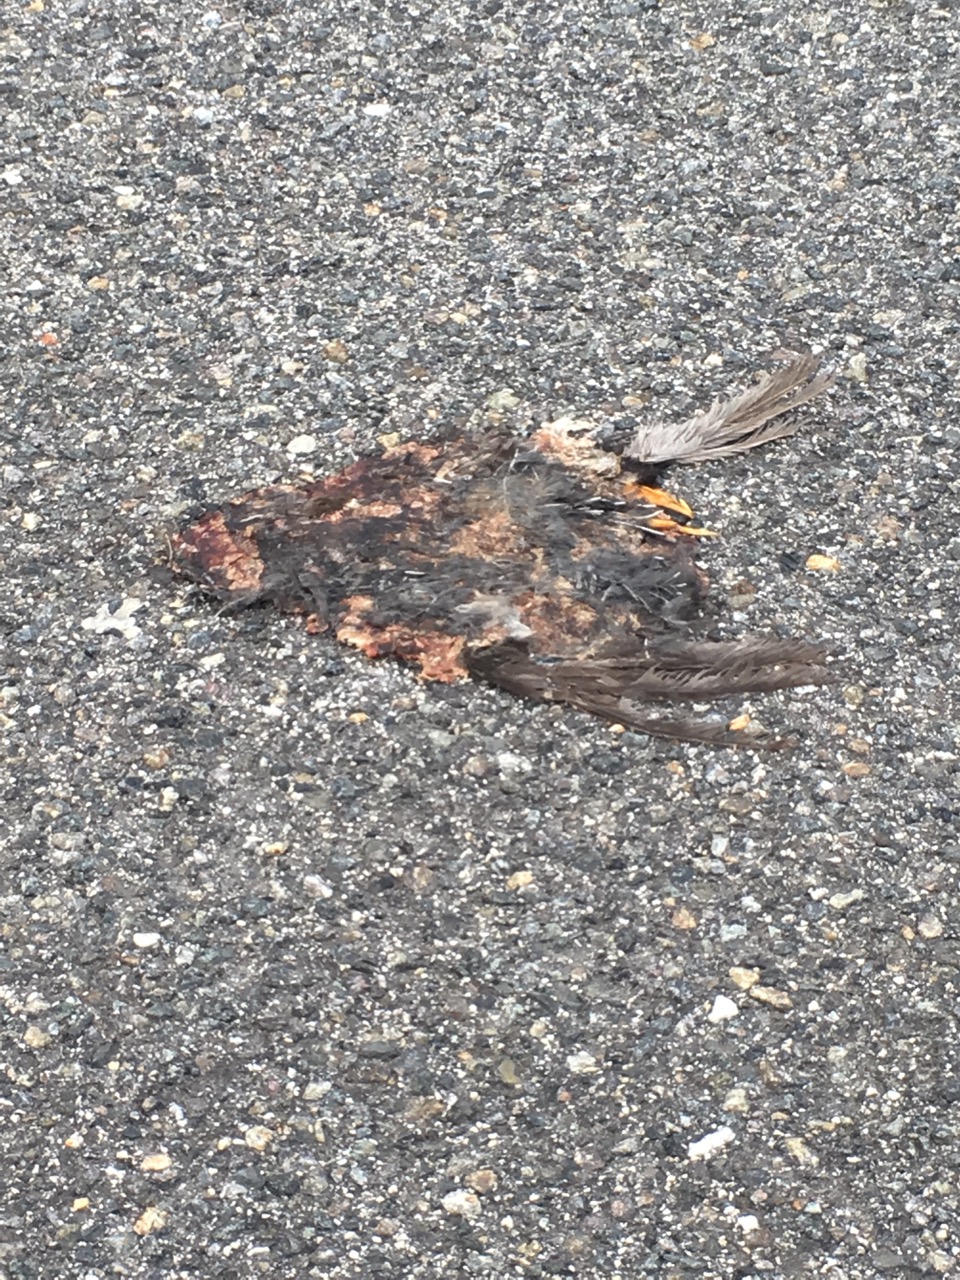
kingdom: Animalia
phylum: Chordata
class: Aves
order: Passeriformes
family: Turdidae
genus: Turdus
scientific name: Turdus merula
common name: Common blackbird
